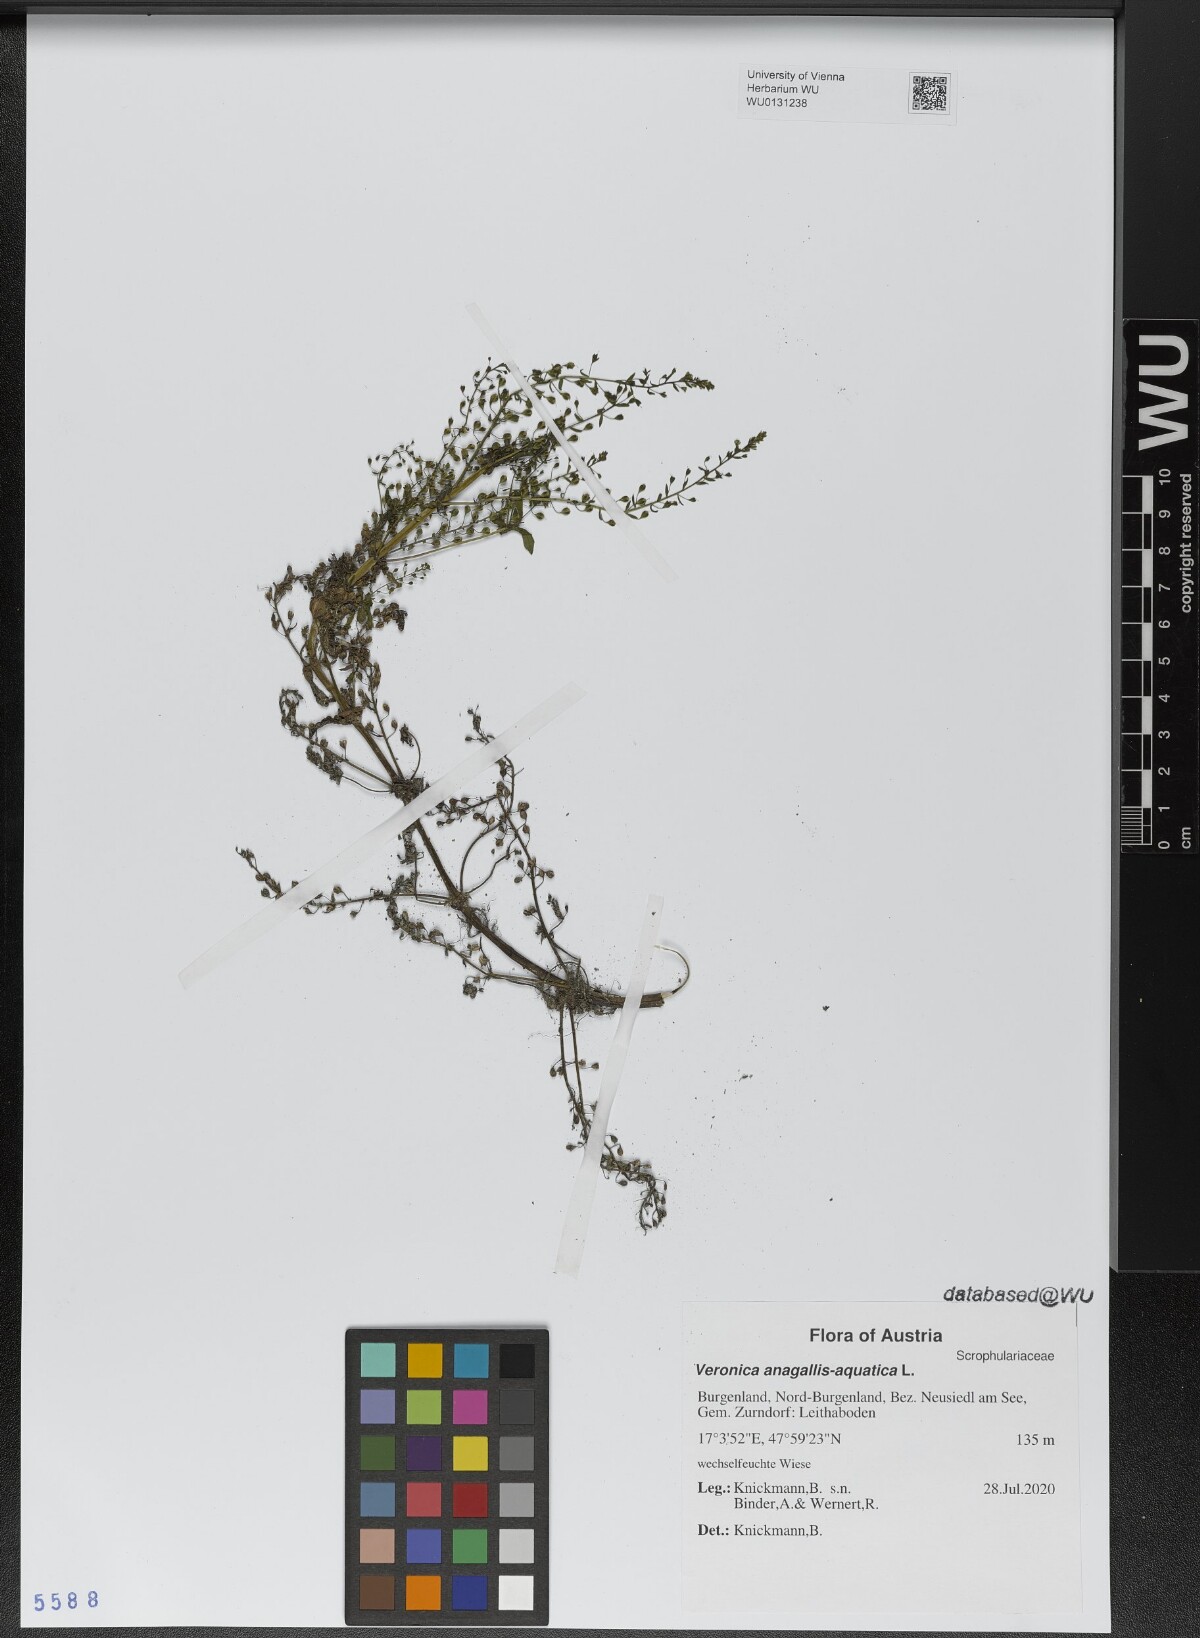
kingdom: Plantae
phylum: Tracheophyta
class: Magnoliopsida
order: Lamiales
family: Plantaginaceae
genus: Veronica
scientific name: Veronica anagallis-aquatica
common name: Water speedwell
